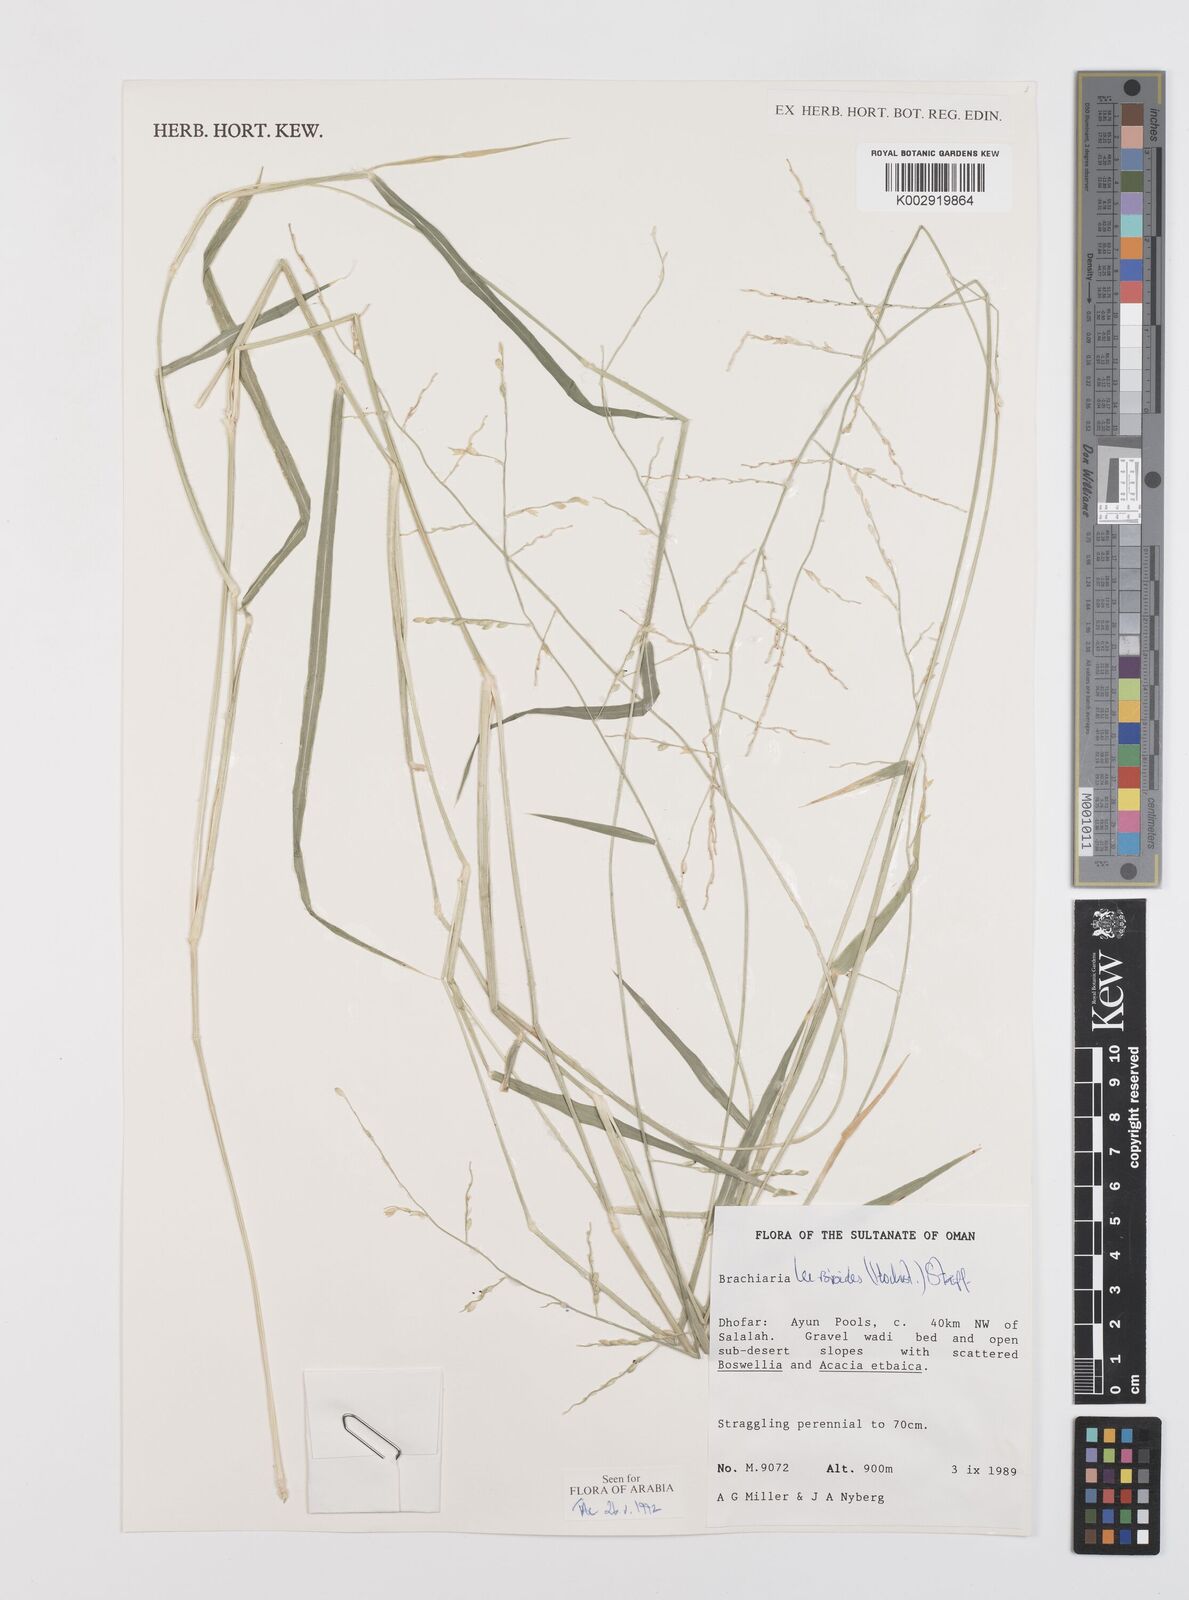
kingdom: Plantae
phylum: Tracheophyta
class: Liliopsida
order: Poales
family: Poaceae
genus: Urochloa
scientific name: Urochloa leersioides
